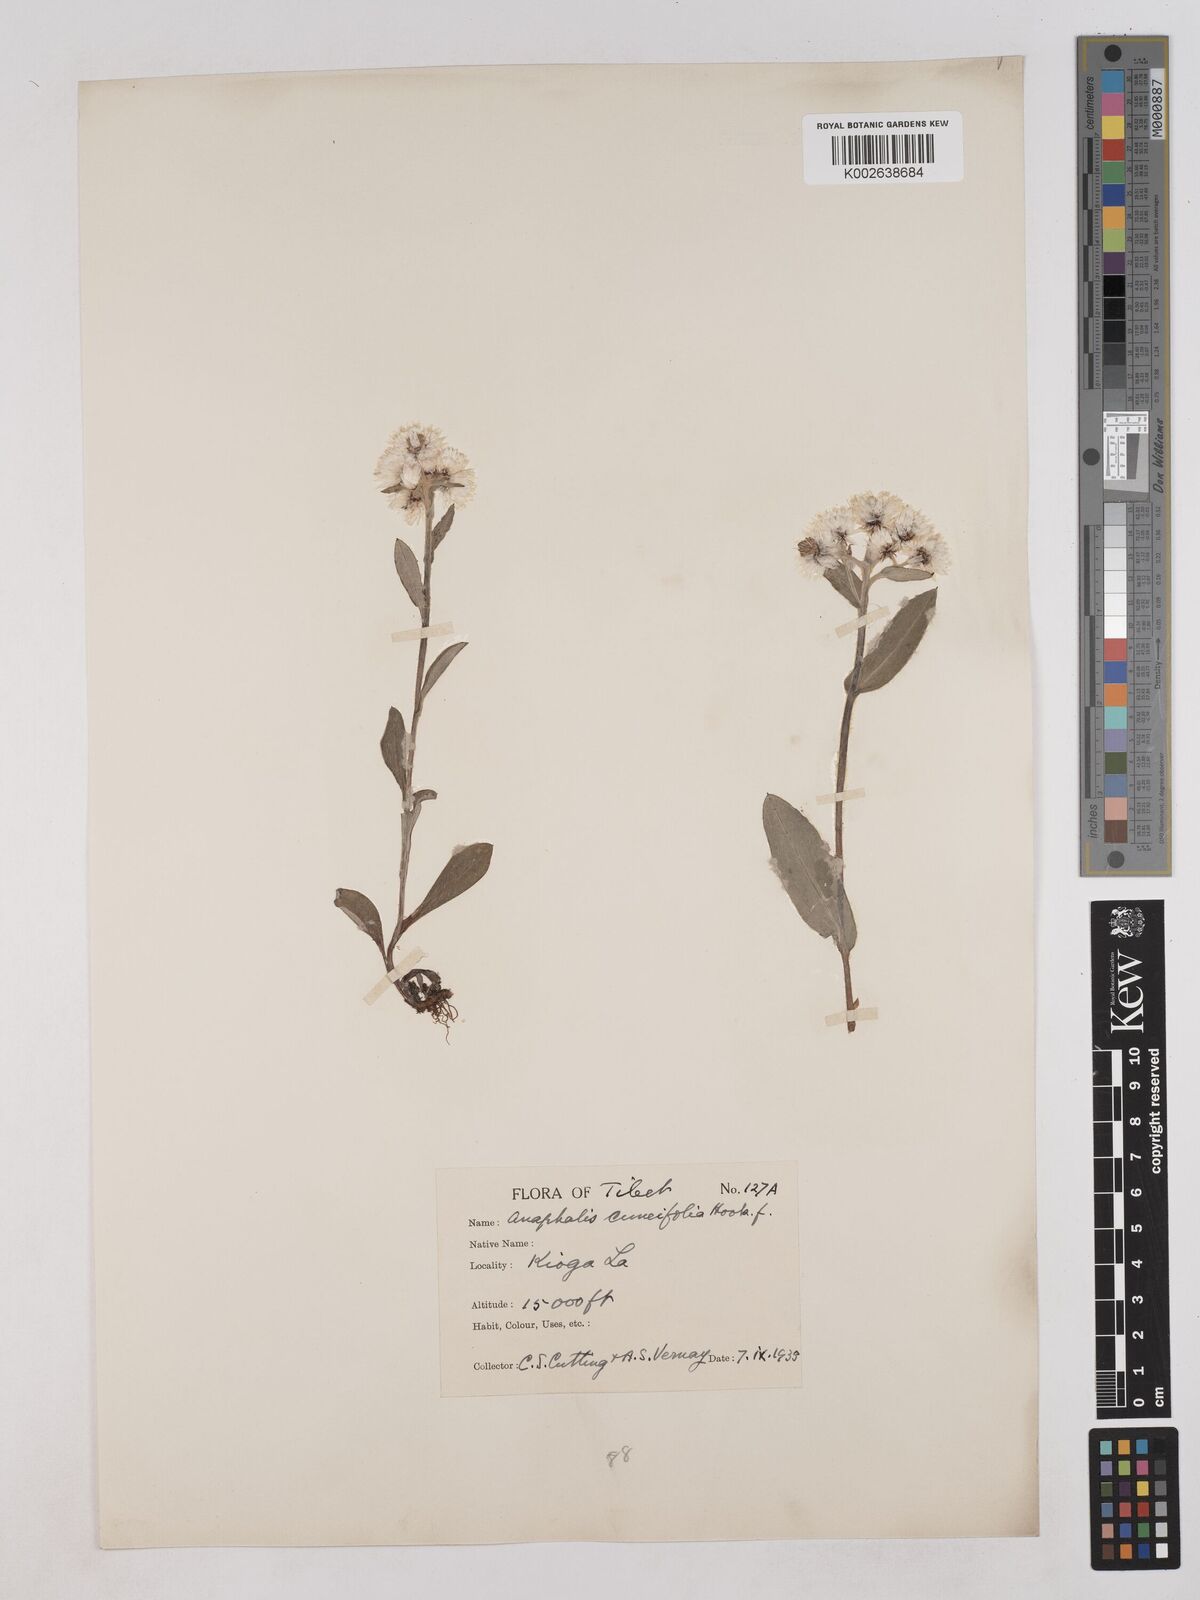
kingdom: Plantae
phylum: Tracheophyta
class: Magnoliopsida
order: Asterales
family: Asteraceae
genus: Anaphalioides
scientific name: Anaphalioides trinervis
